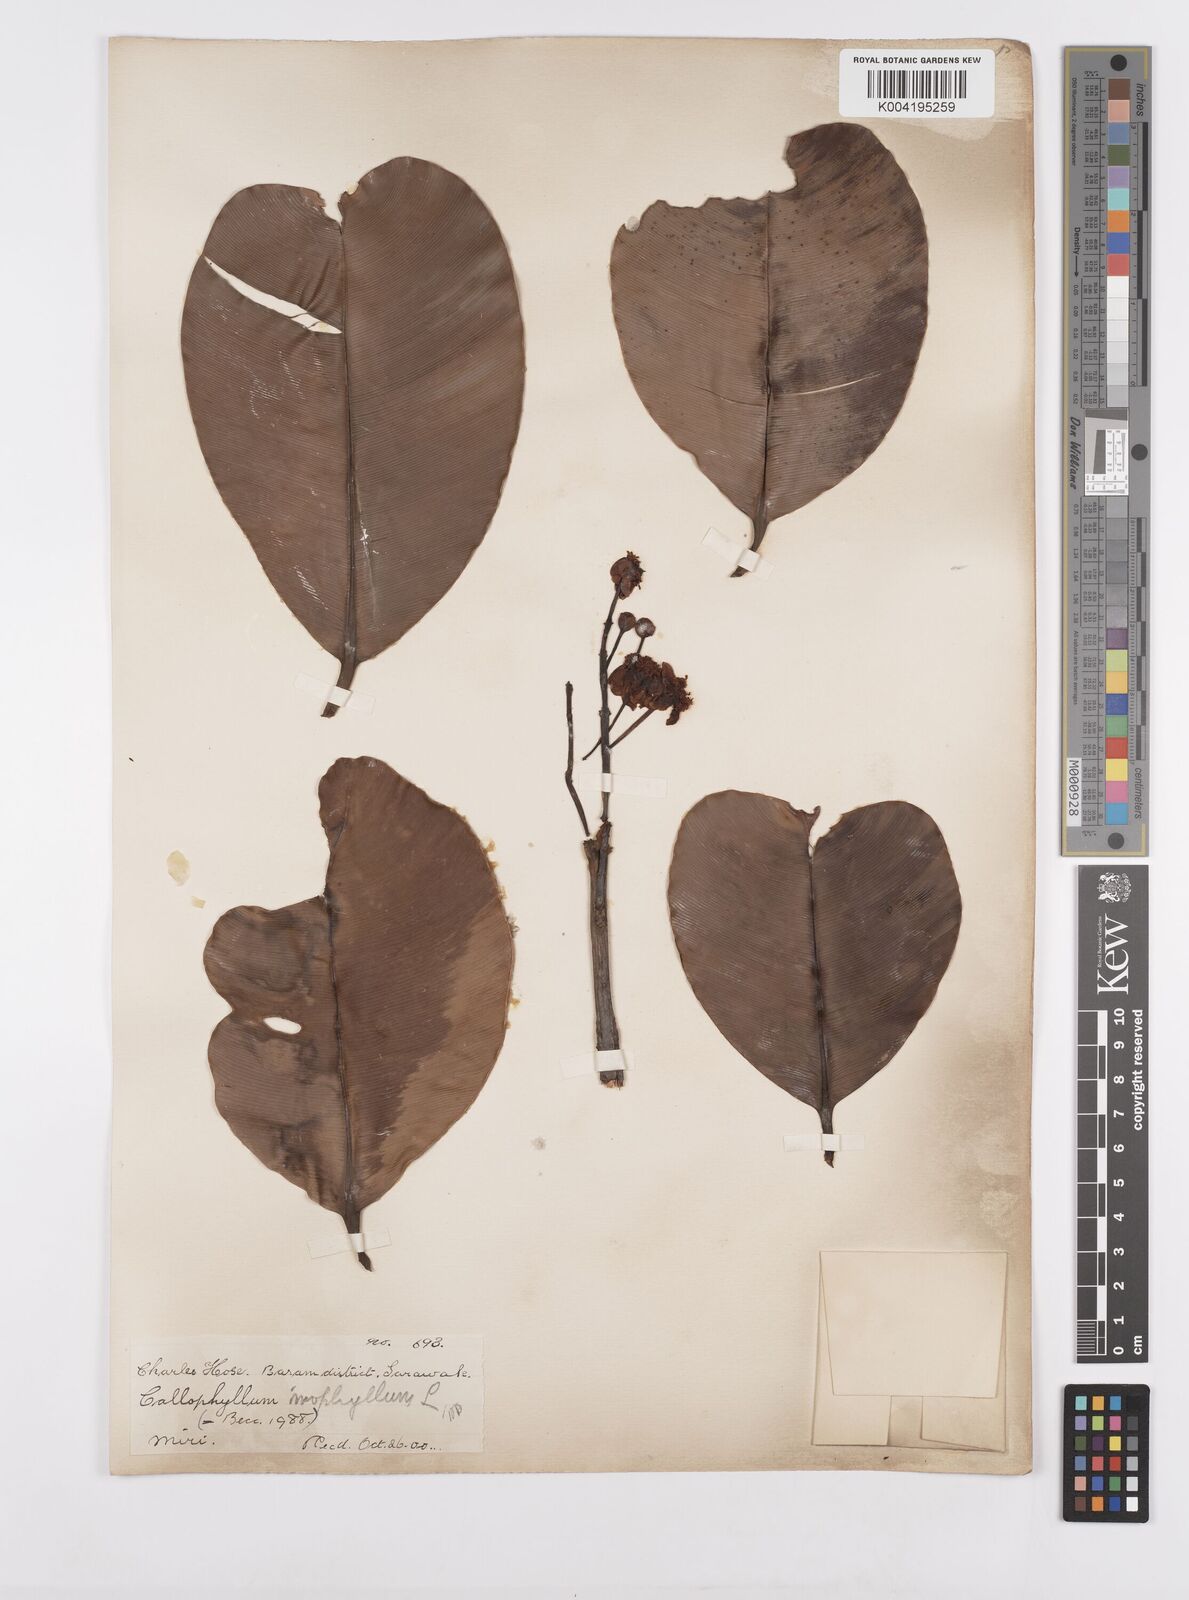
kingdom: Plantae
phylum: Tracheophyta
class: Magnoliopsida
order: Malpighiales
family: Calophyllaceae
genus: Calophyllum
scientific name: Calophyllum inophyllum
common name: Alexandrian laurel
